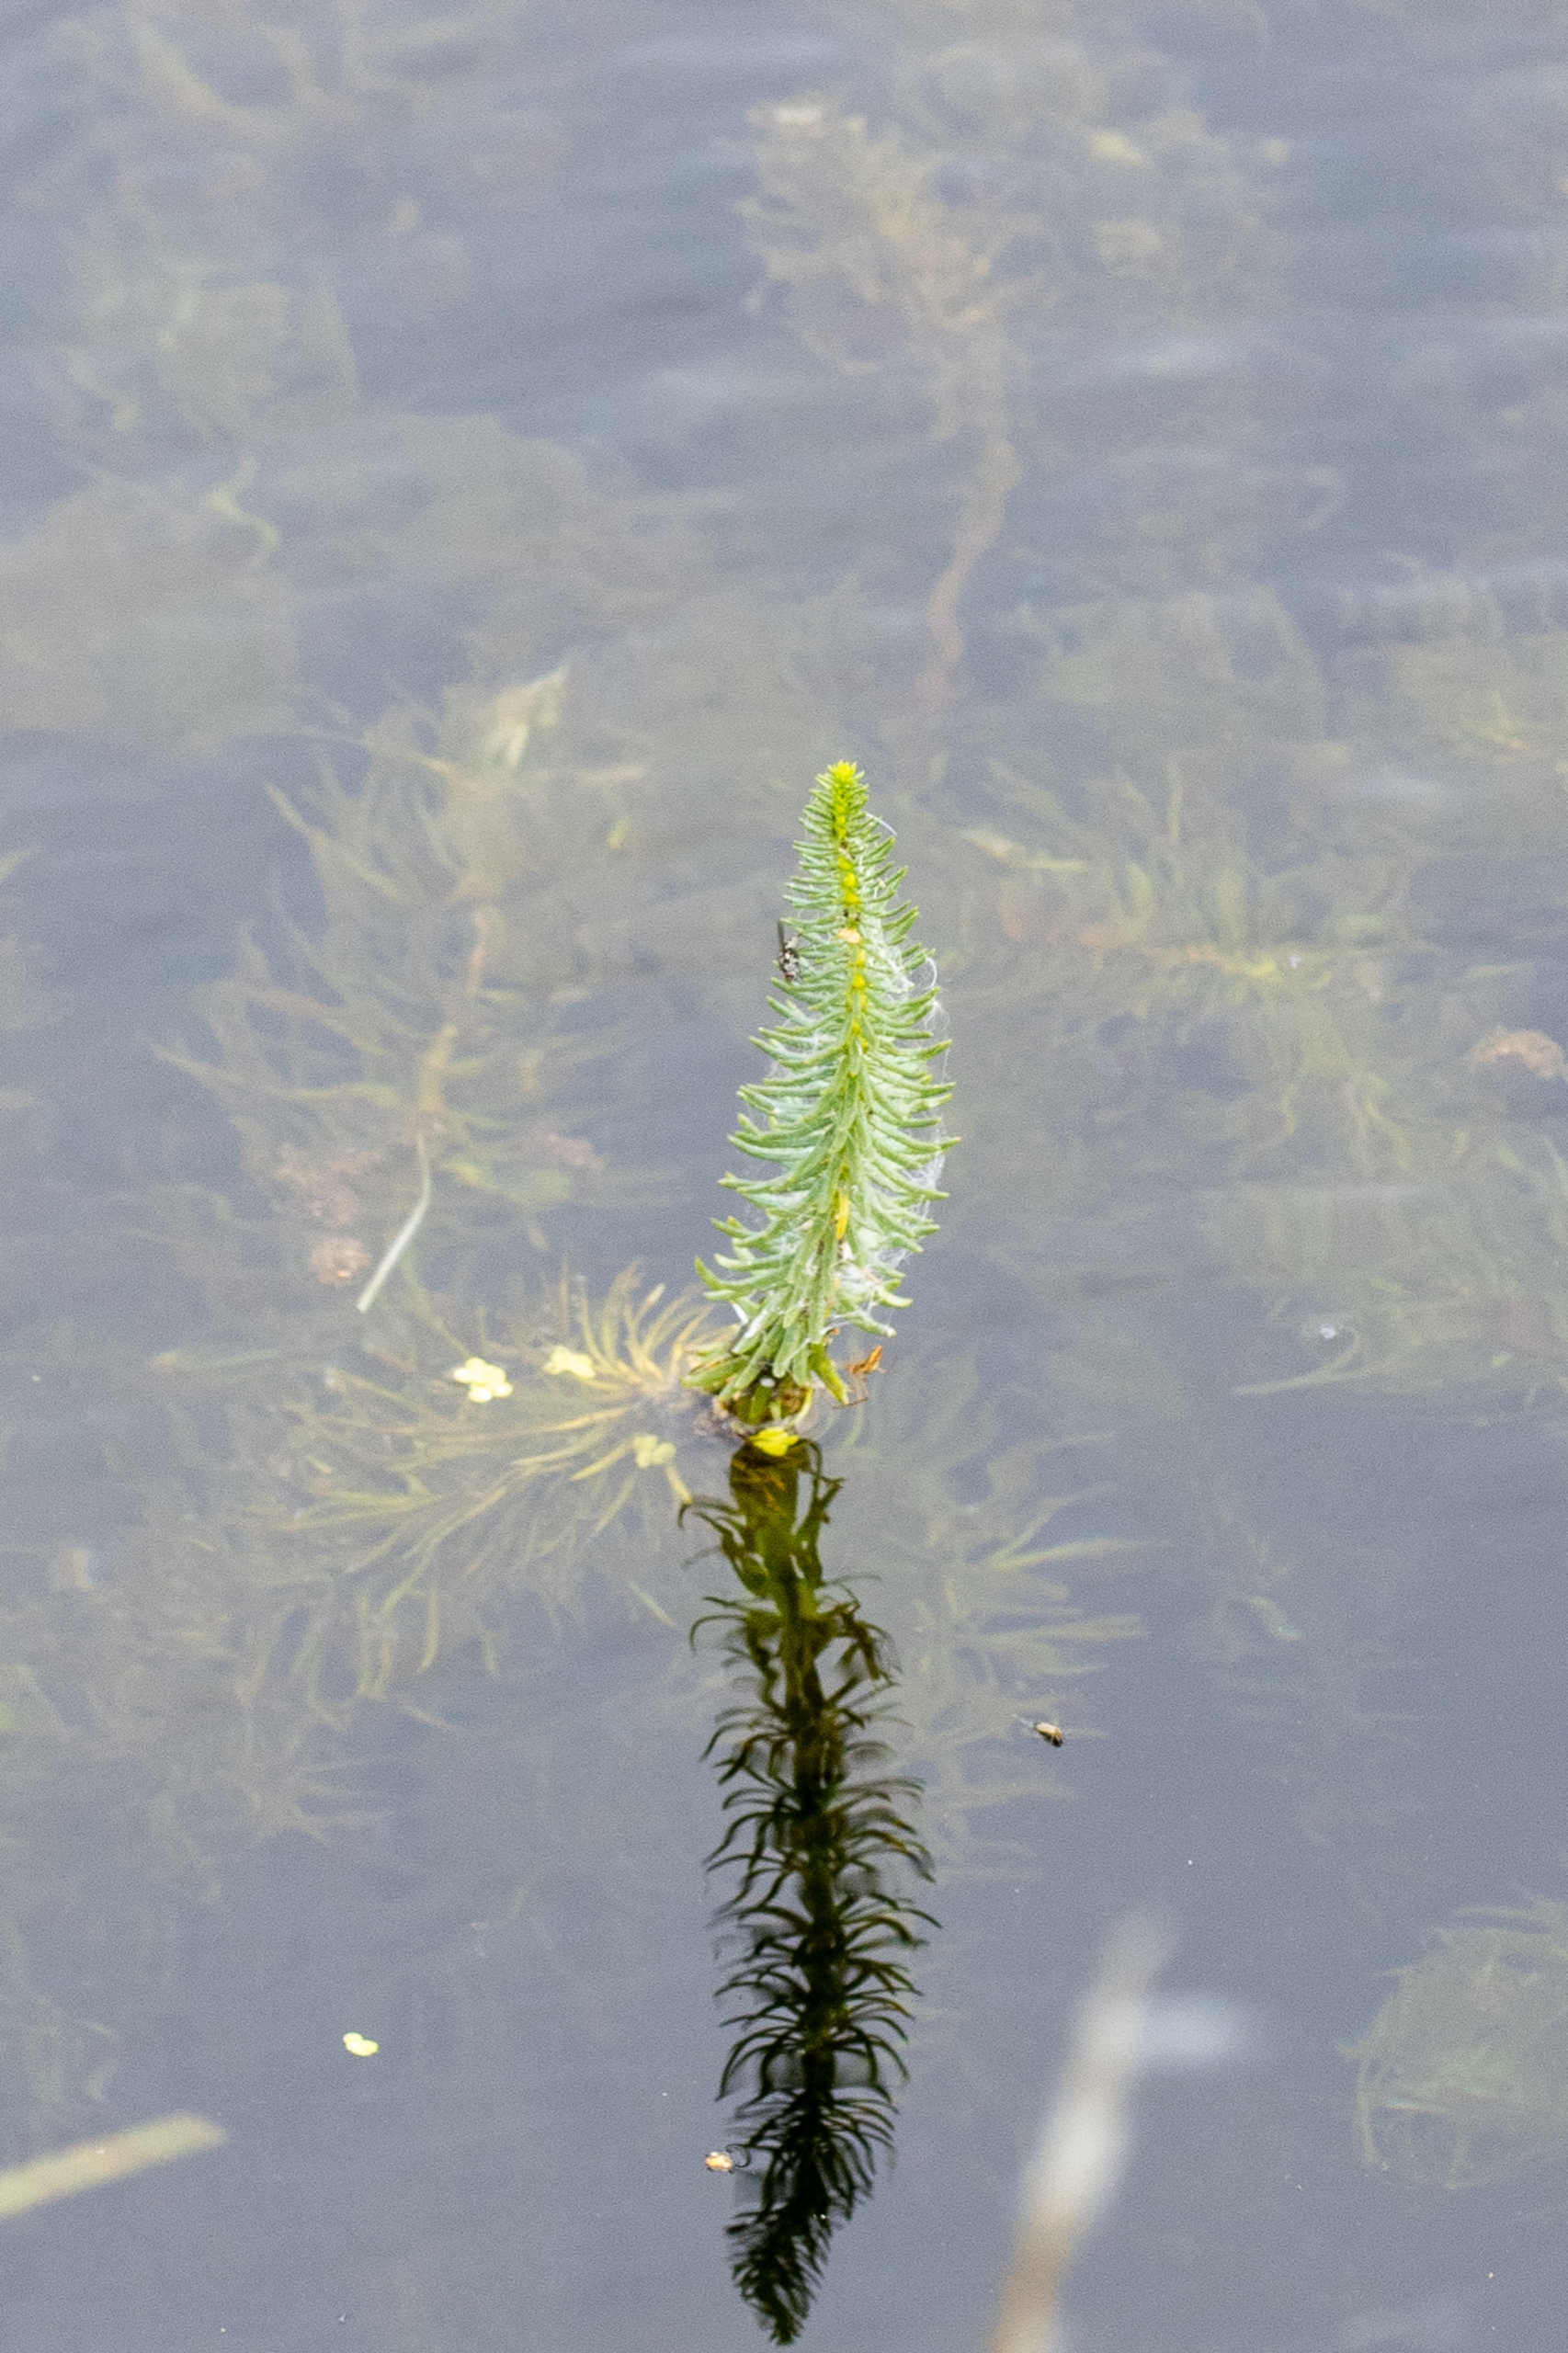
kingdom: Plantae
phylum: Tracheophyta
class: Magnoliopsida
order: Lamiales
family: Plantaginaceae
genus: Hippuris
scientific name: Hippuris vulgaris
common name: Vandspir
